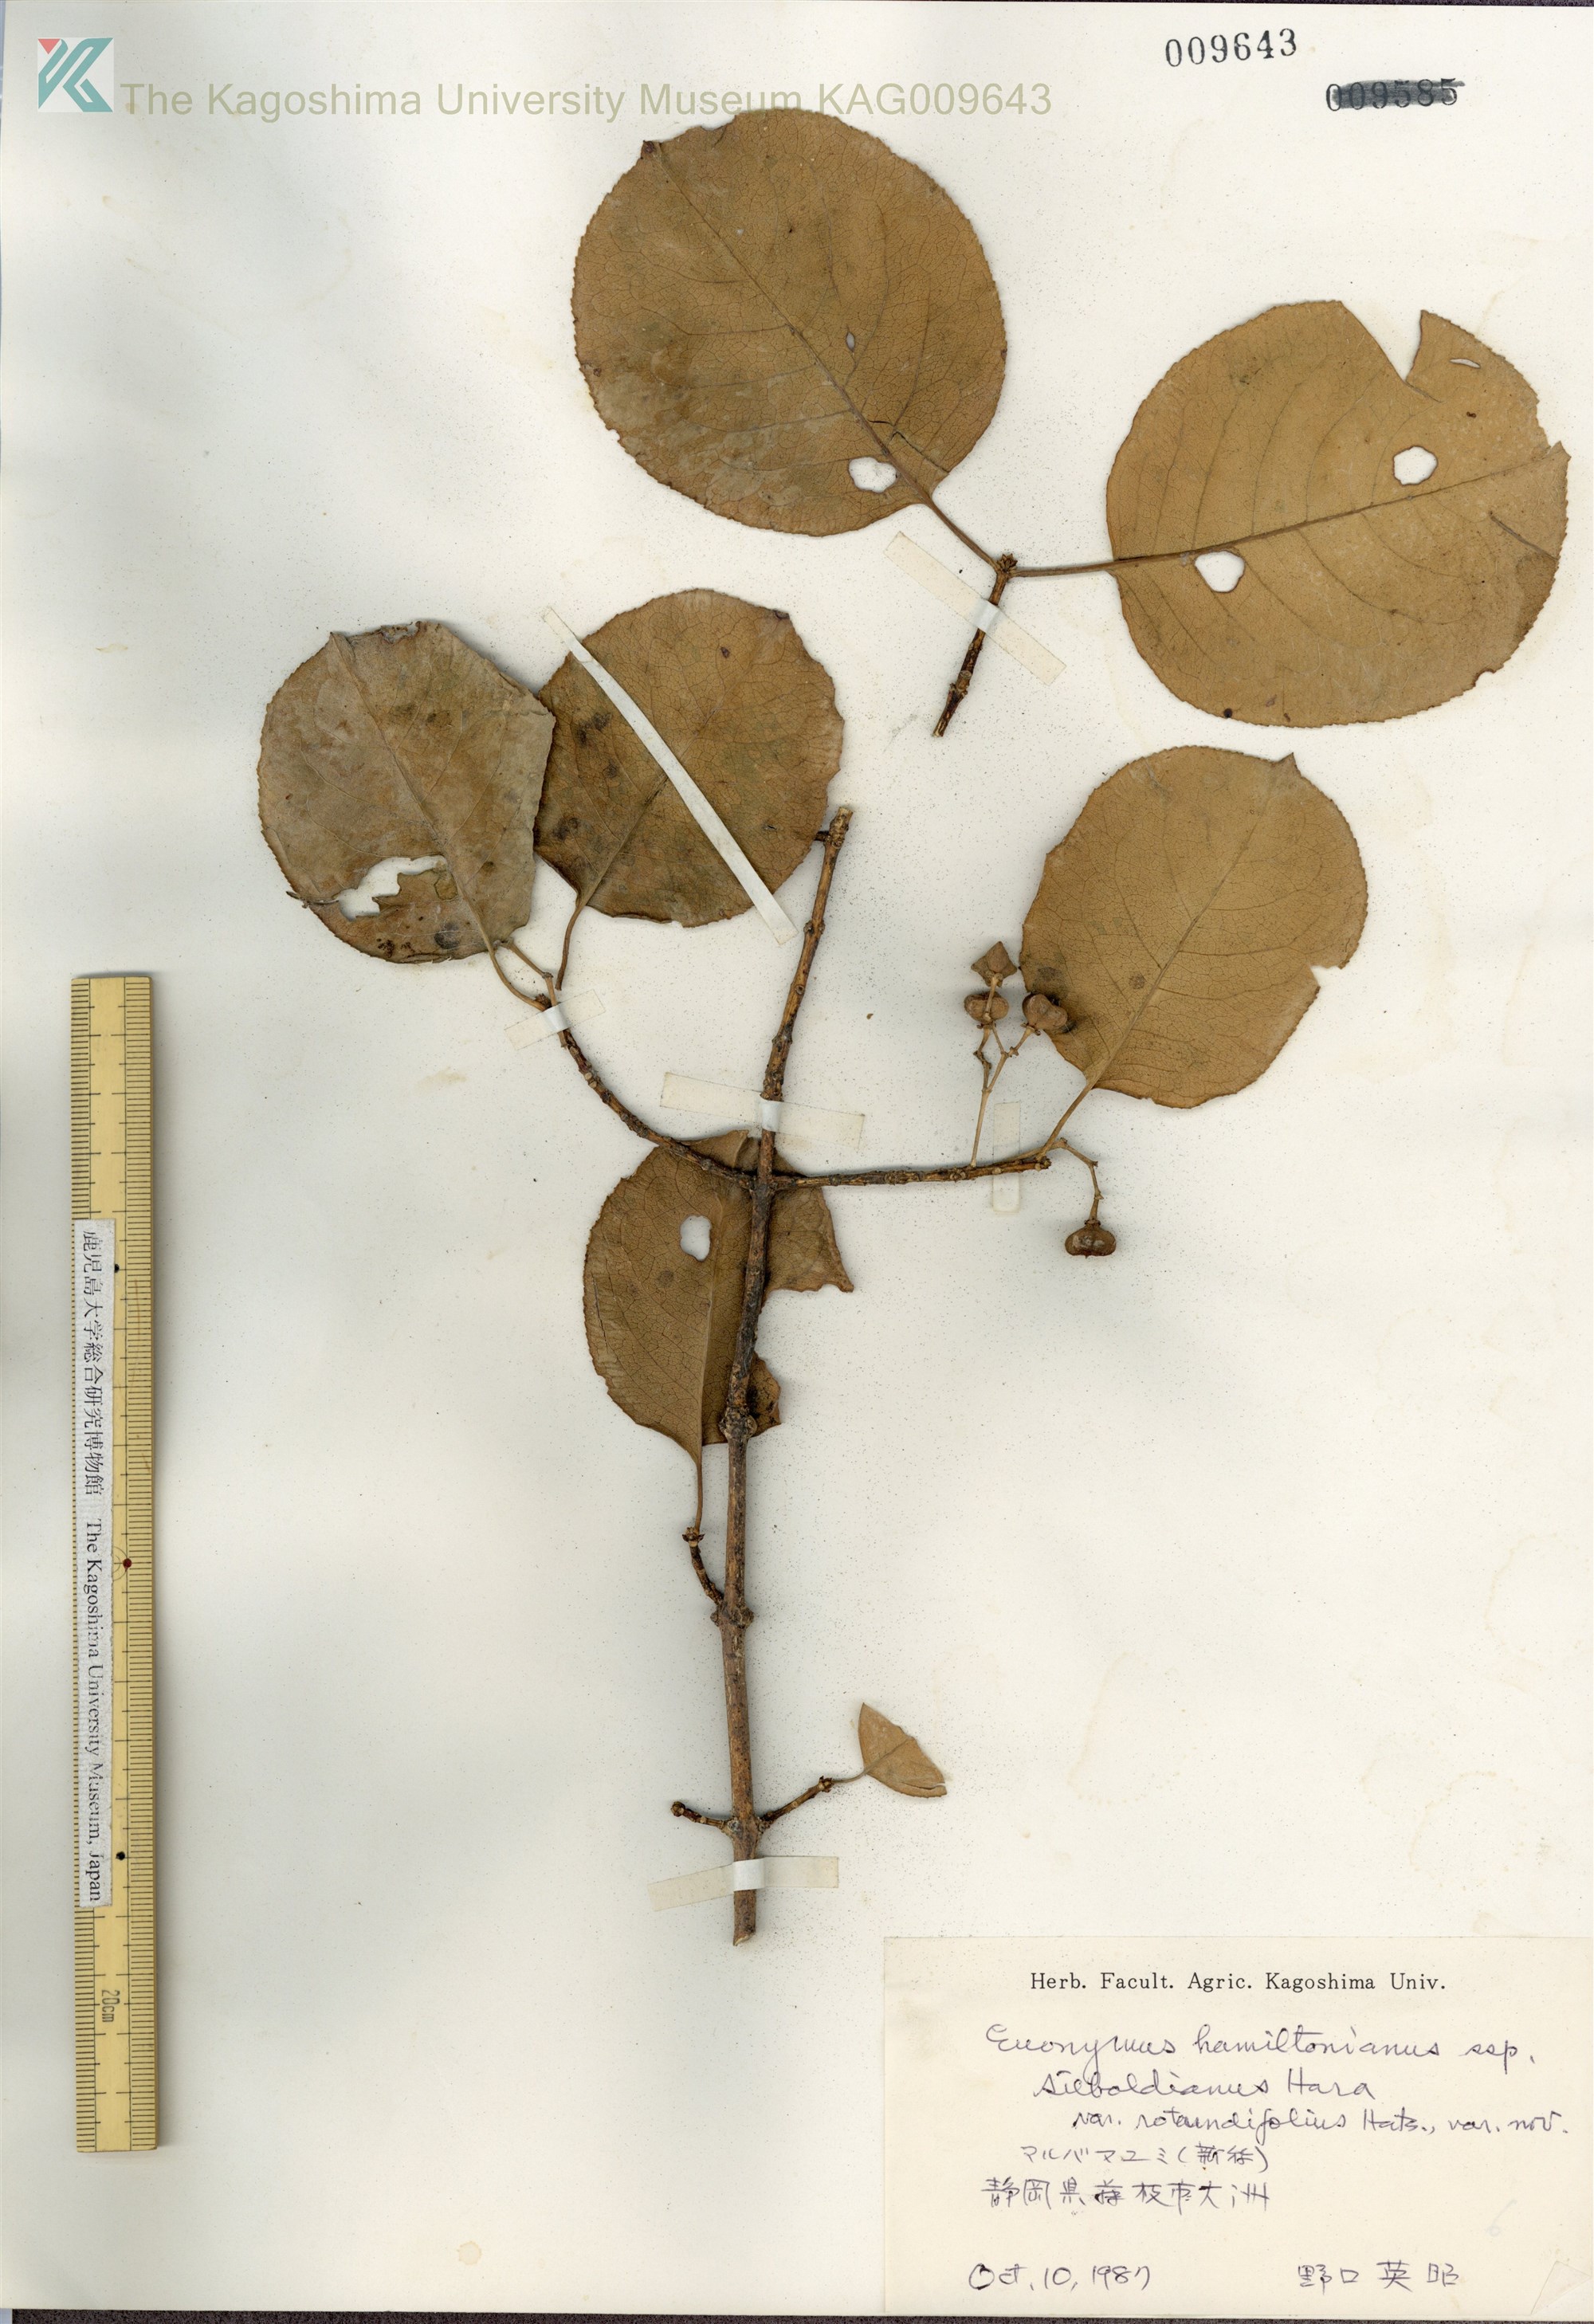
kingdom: Plantae
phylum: Tracheophyta
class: Magnoliopsida
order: Celastrales
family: Celastraceae
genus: Euonymus
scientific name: Euonymus hamiltonianus
